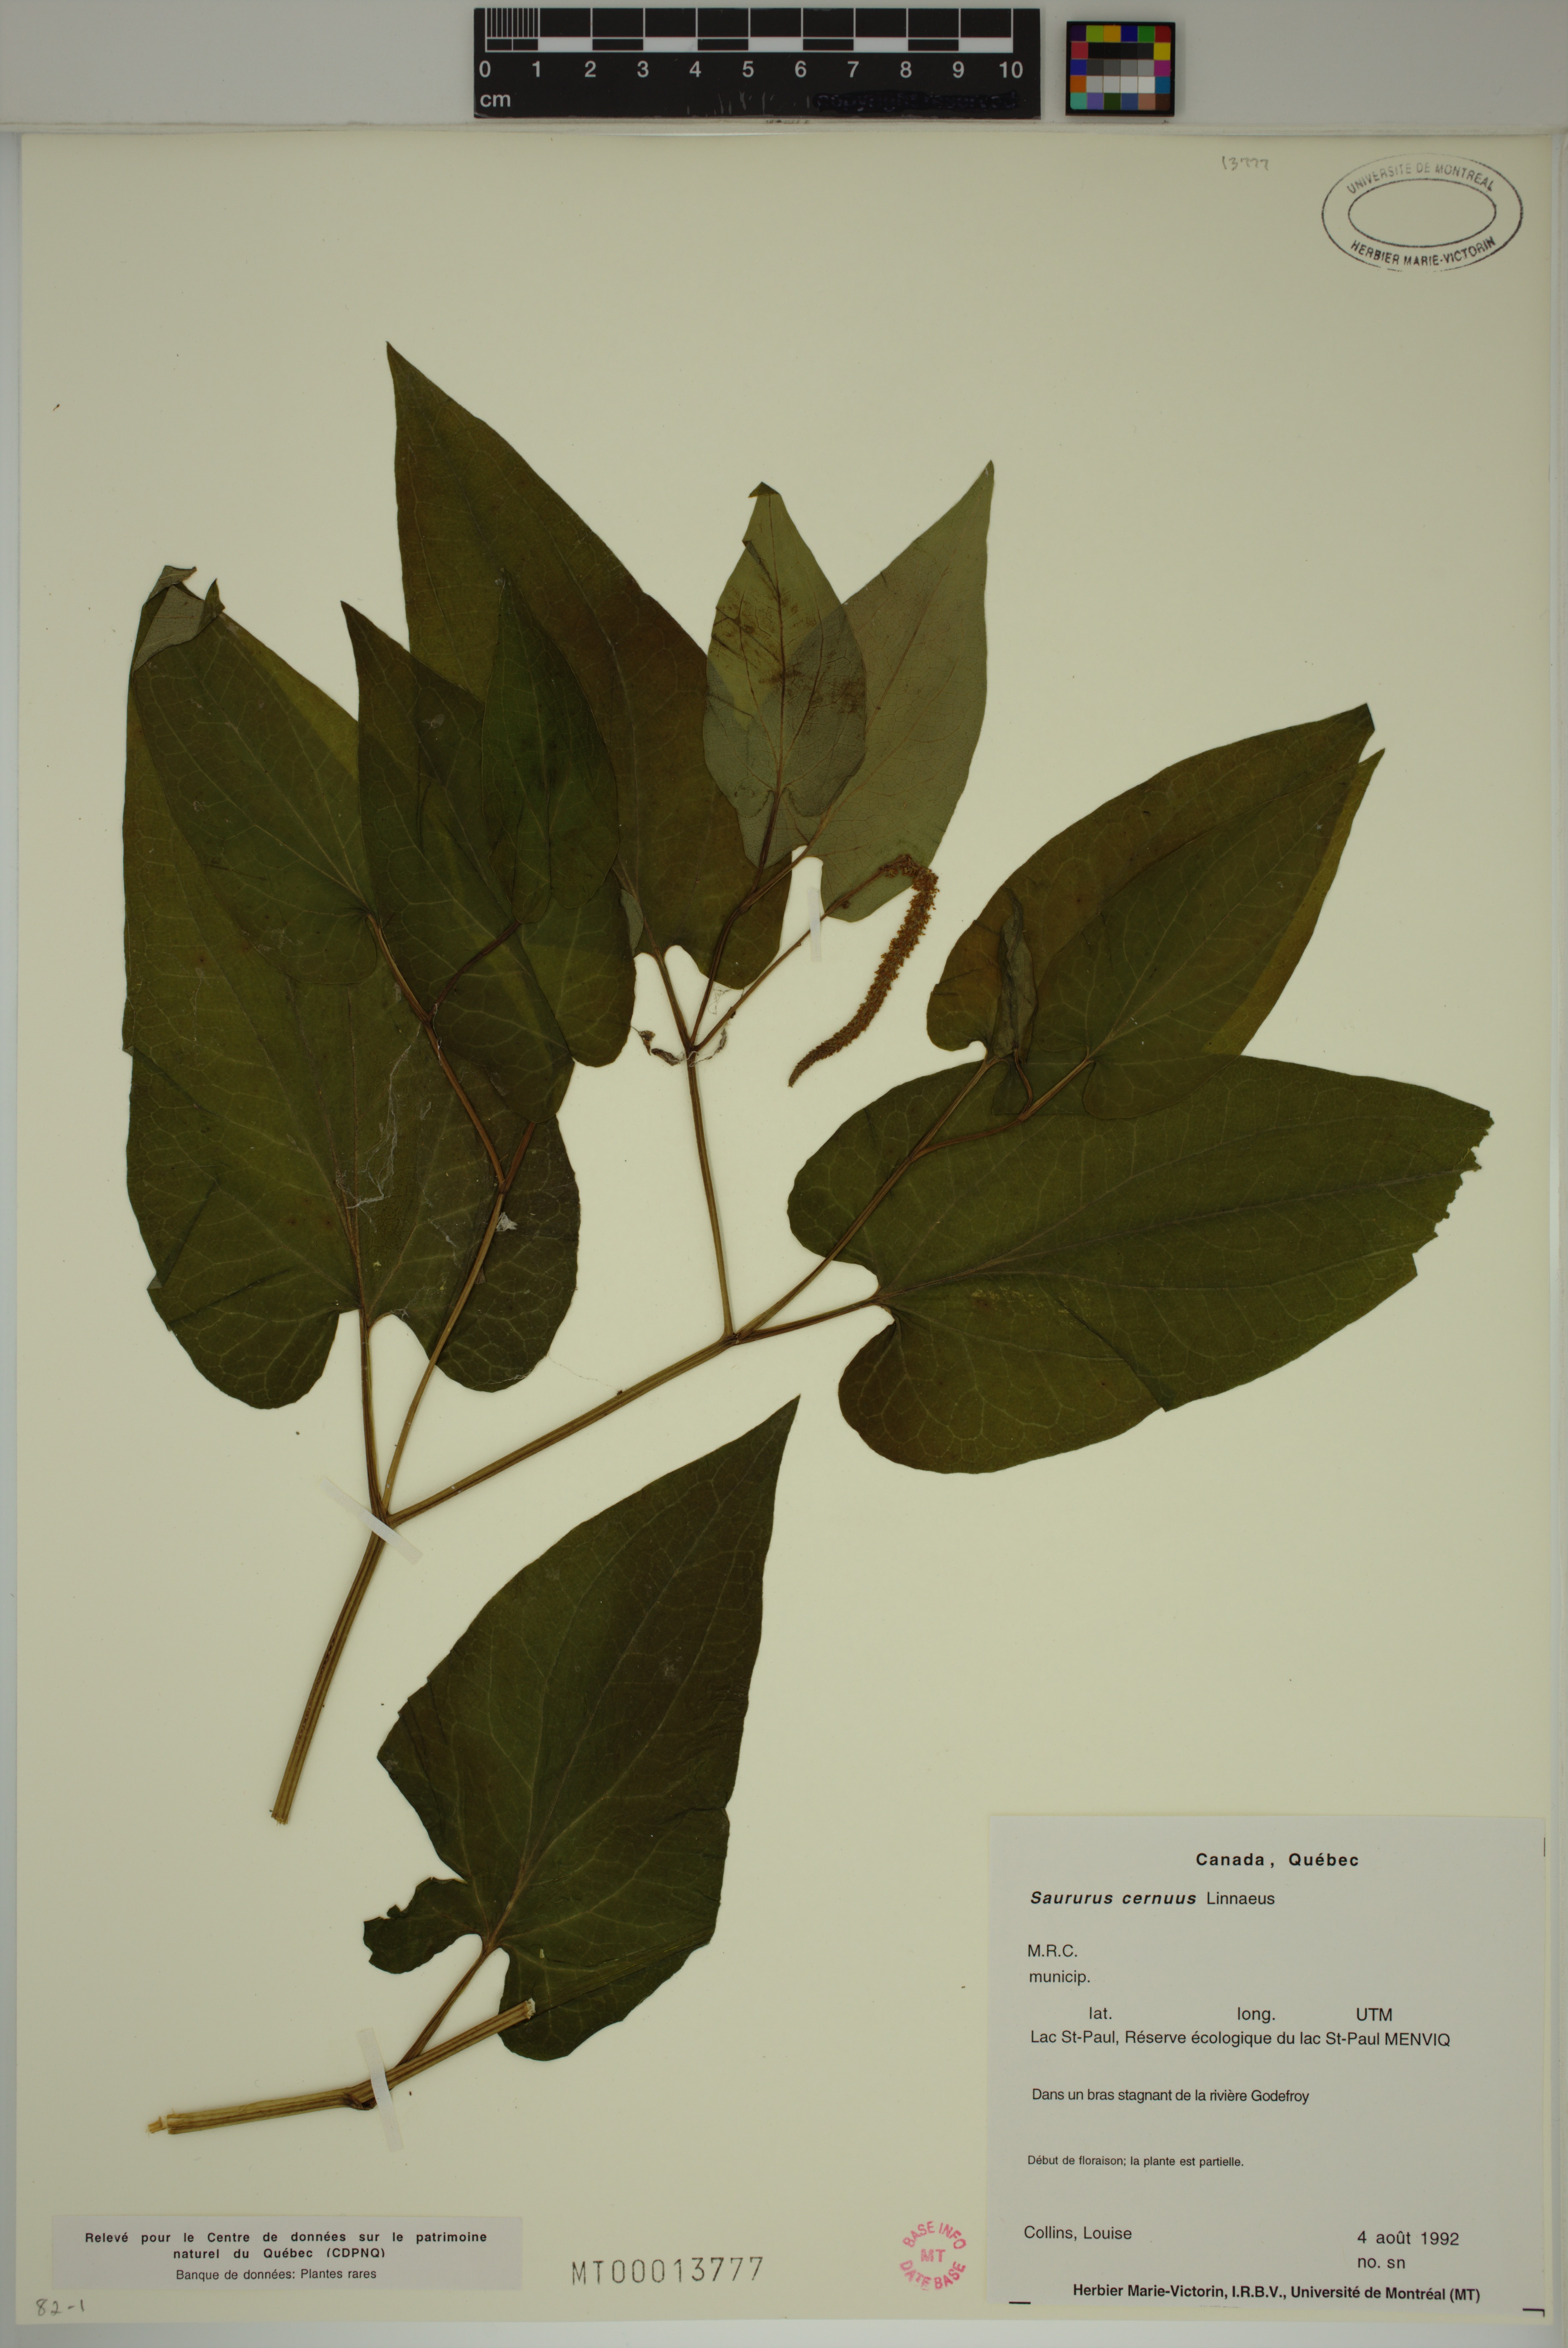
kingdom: Plantae
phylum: Tracheophyta
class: Magnoliopsida
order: Piperales
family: Saururaceae
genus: Saururus
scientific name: Saururus cernuus
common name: Lizard's-tail
